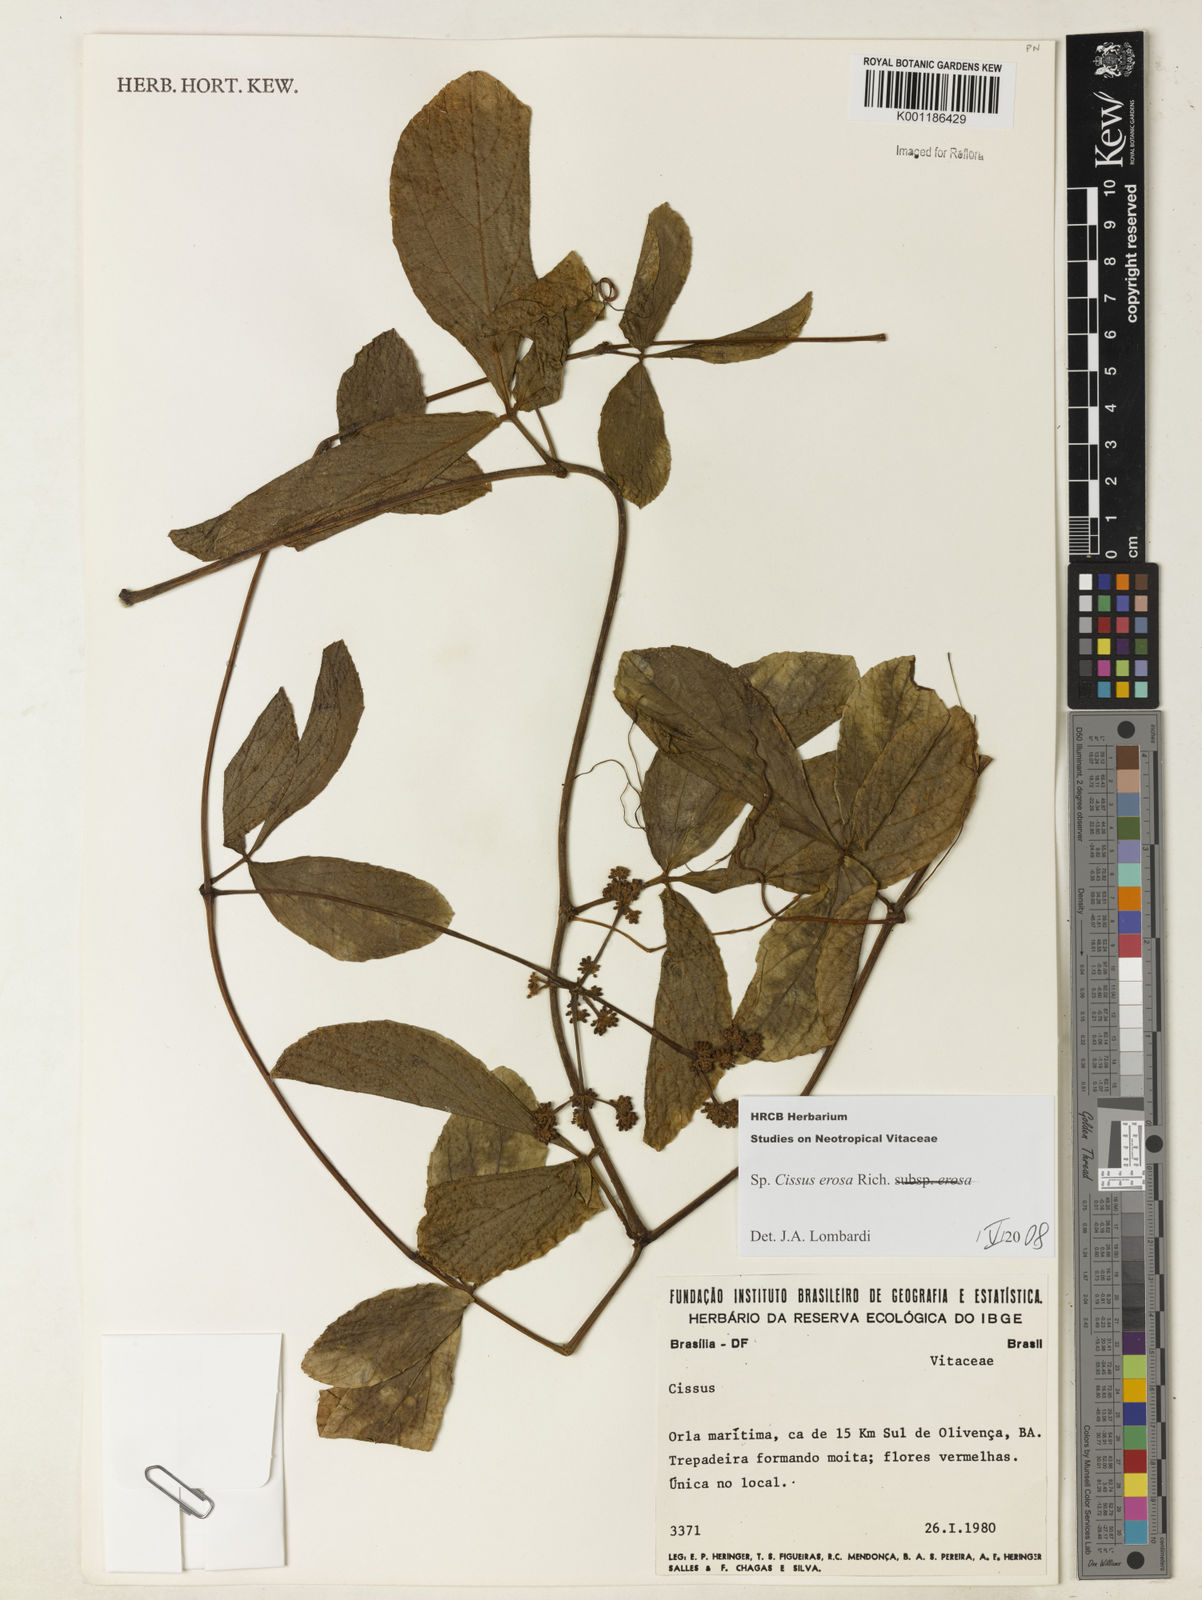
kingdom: Plantae
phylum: Tracheophyta
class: Magnoliopsida
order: Vitales
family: Vitaceae
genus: Cissus
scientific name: Cissus erosa
